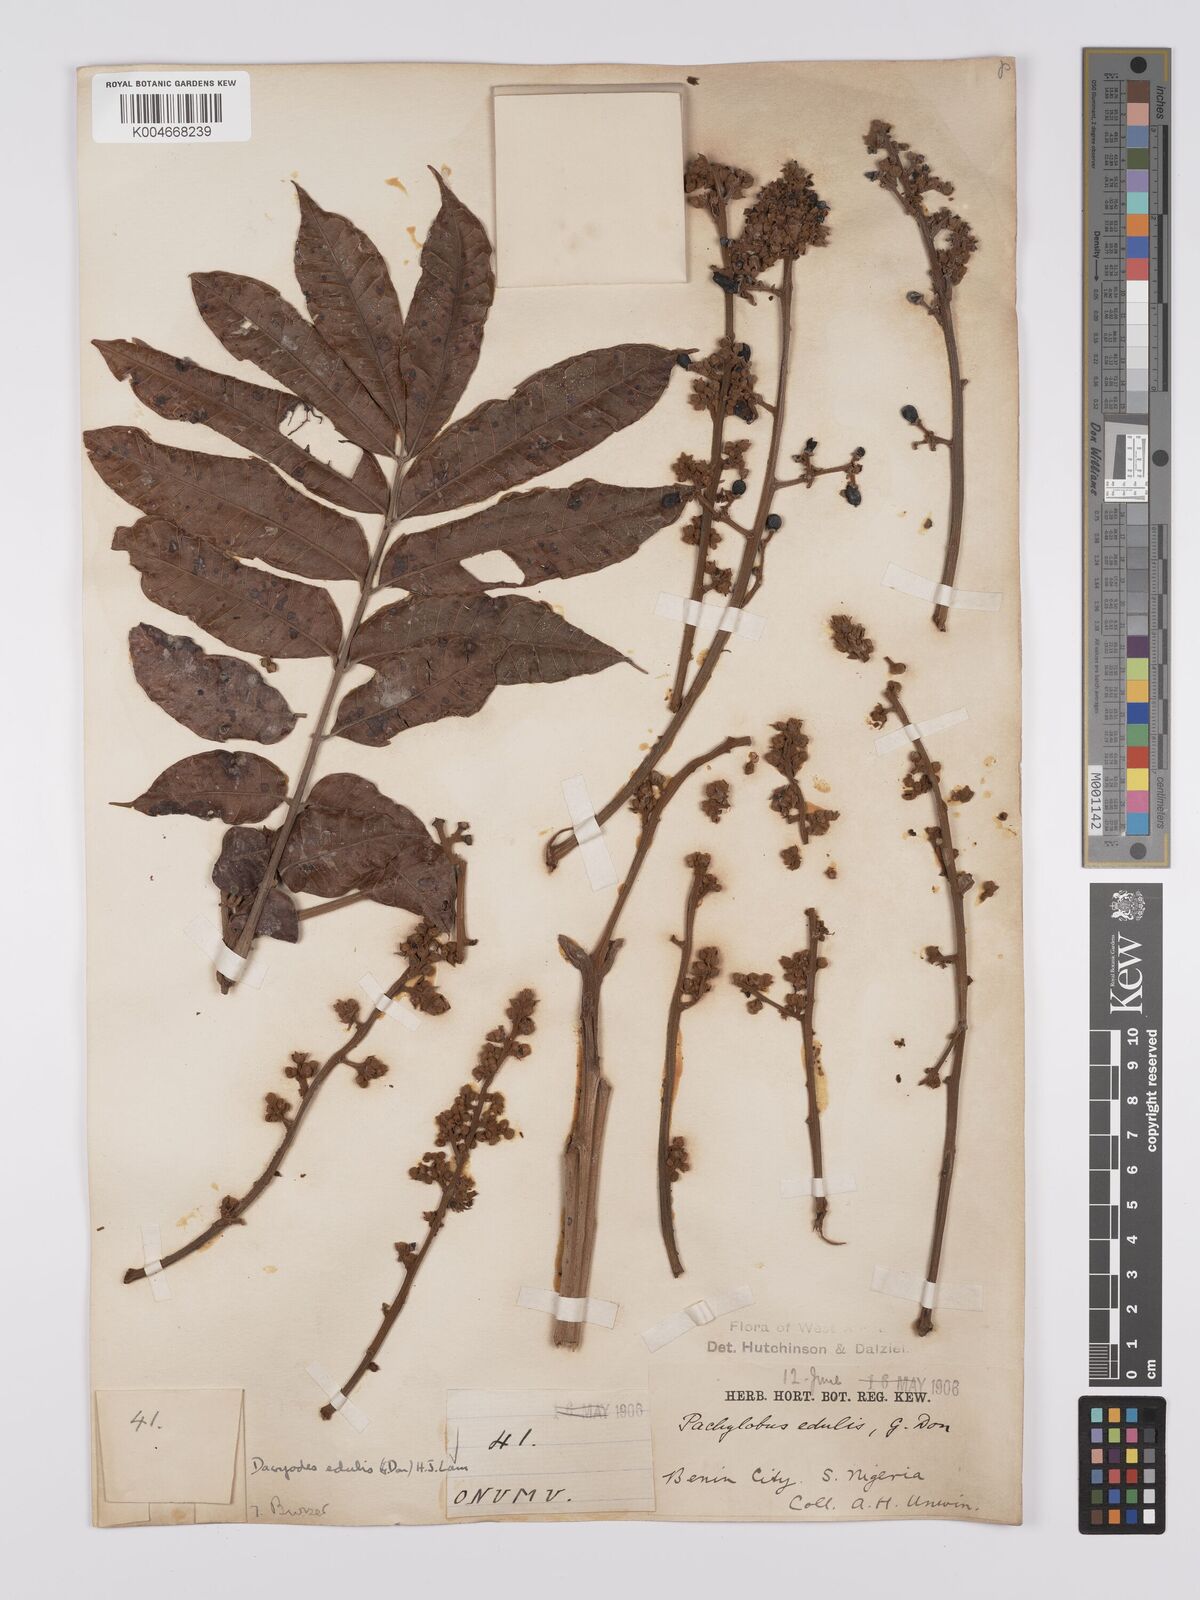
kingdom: Plantae
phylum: Tracheophyta
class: Magnoliopsida
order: Sapindales
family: Burseraceae
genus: Pachylobus
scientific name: Pachylobus edulis
